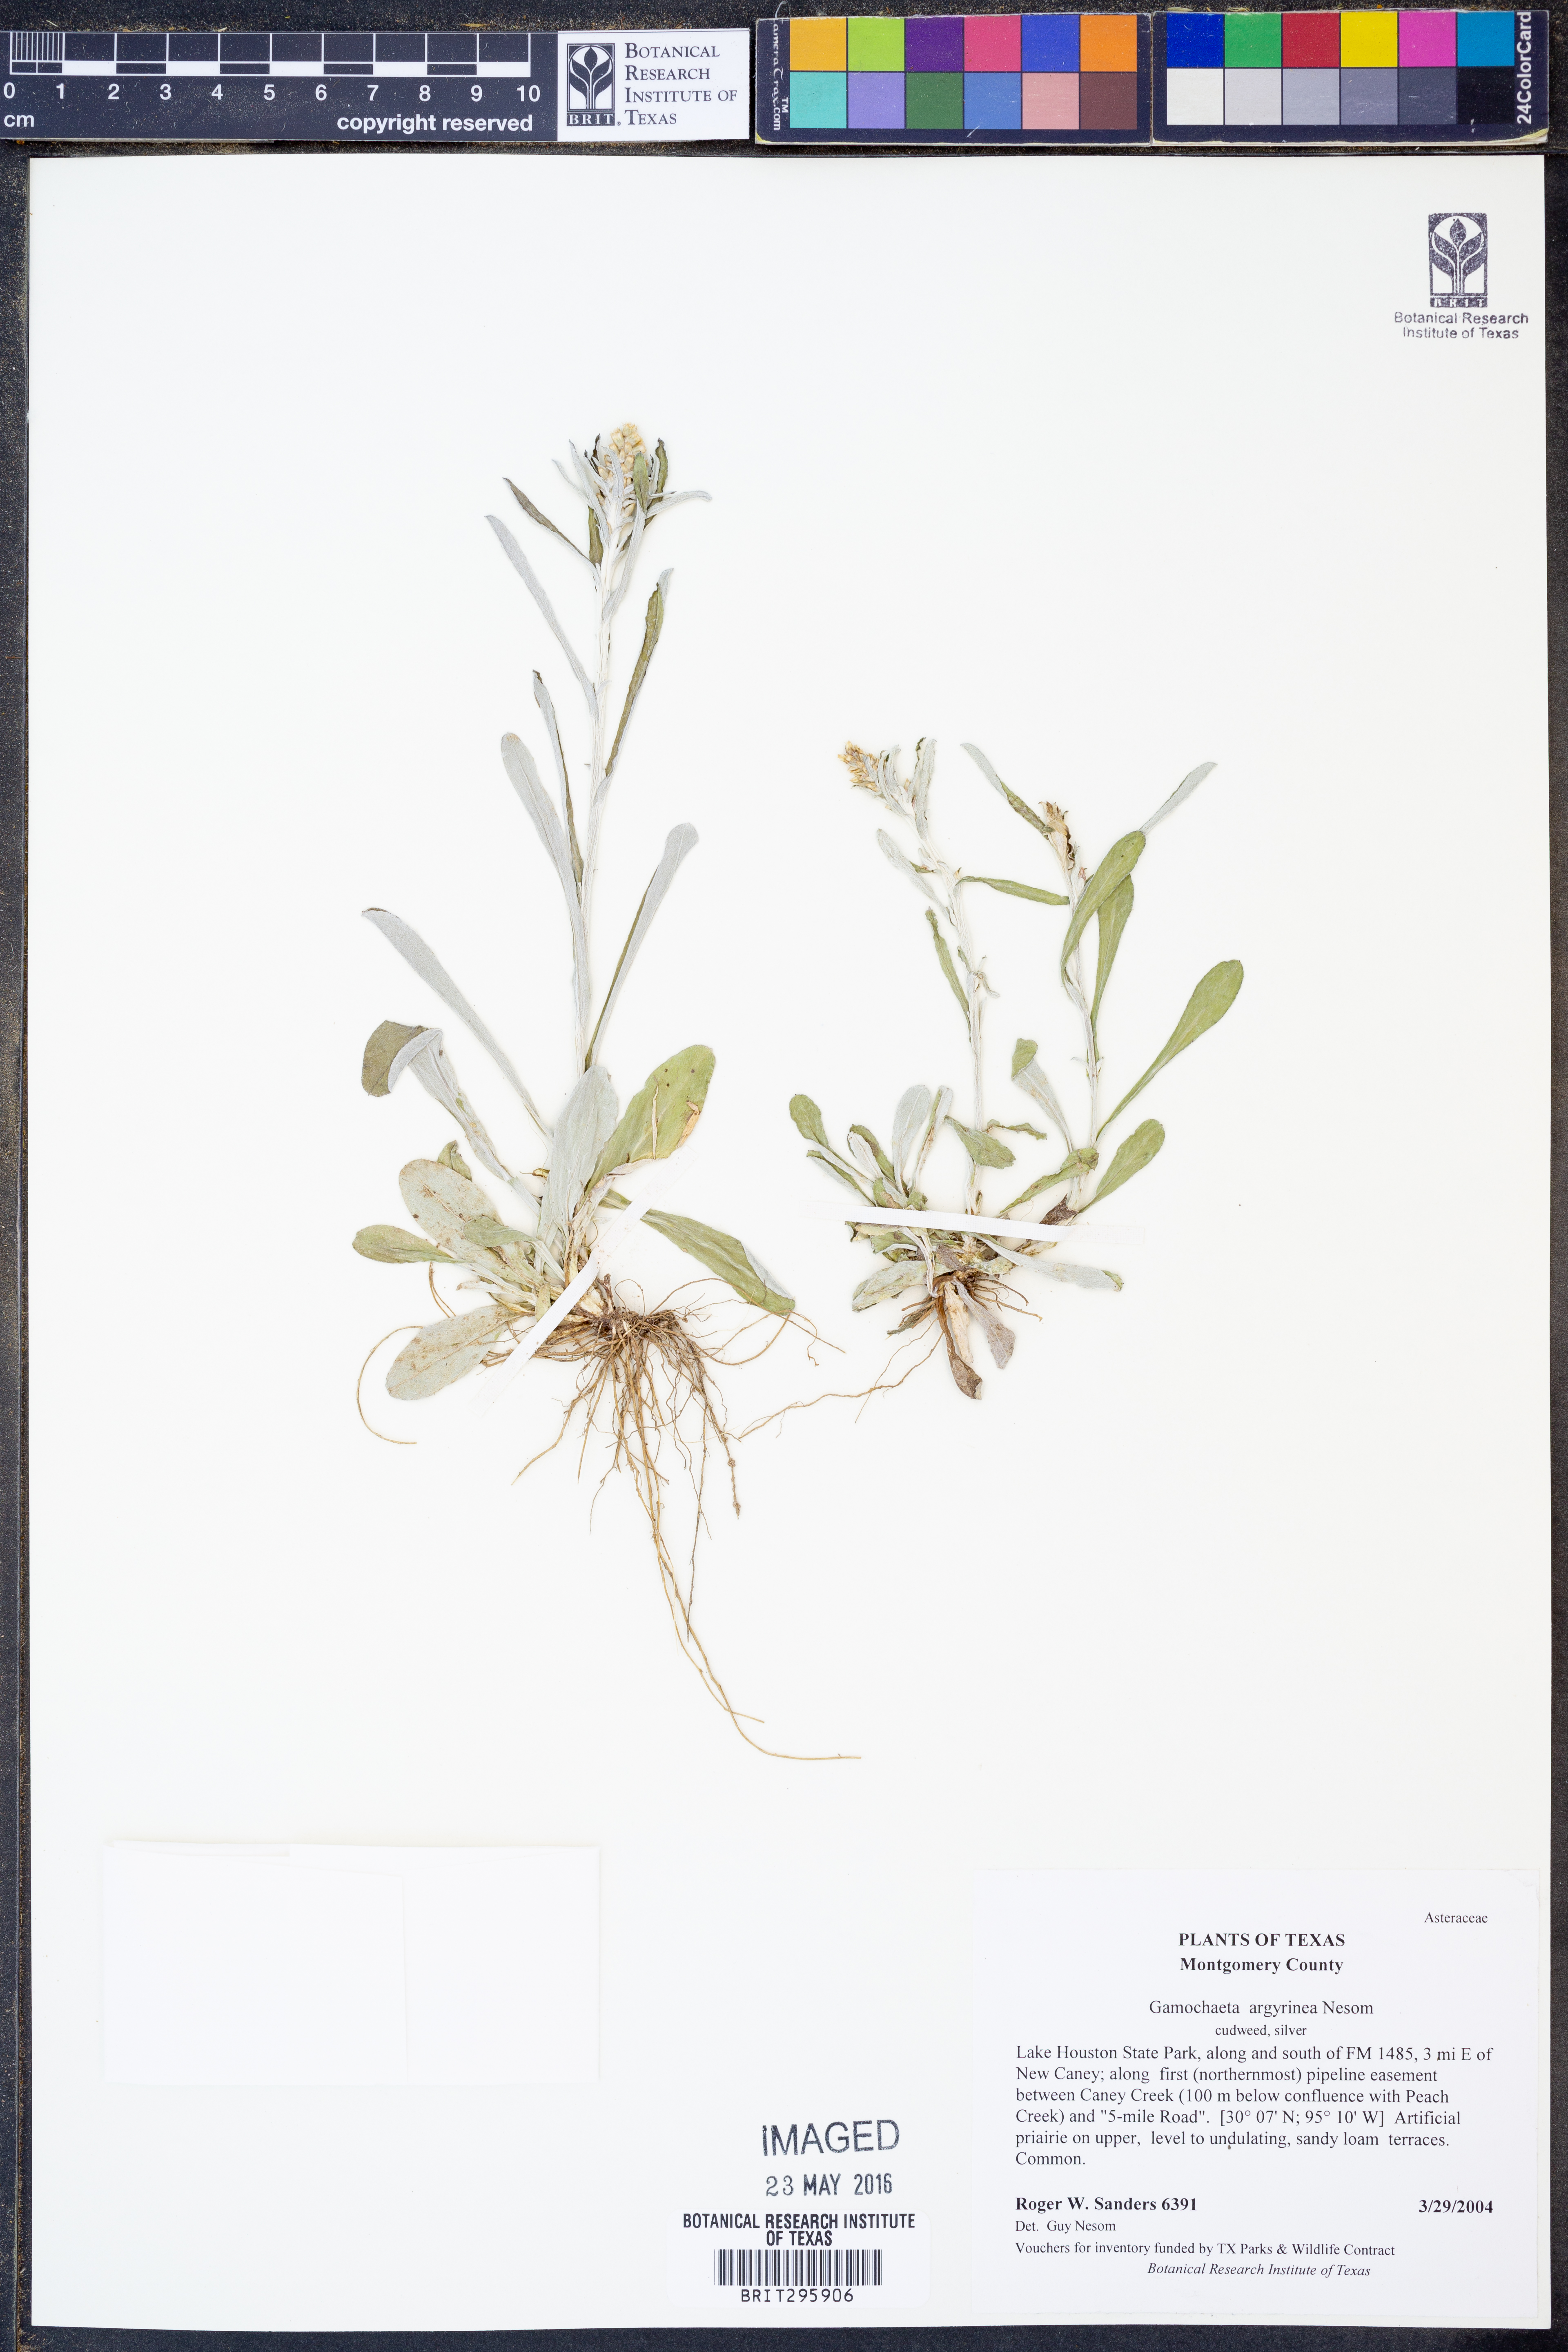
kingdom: Plantae
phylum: Tracheophyta
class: Magnoliopsida
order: Asterales
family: Asteraceae
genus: Gamochaeta
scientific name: Gamochaeta purpurea
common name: Purple cudweed
